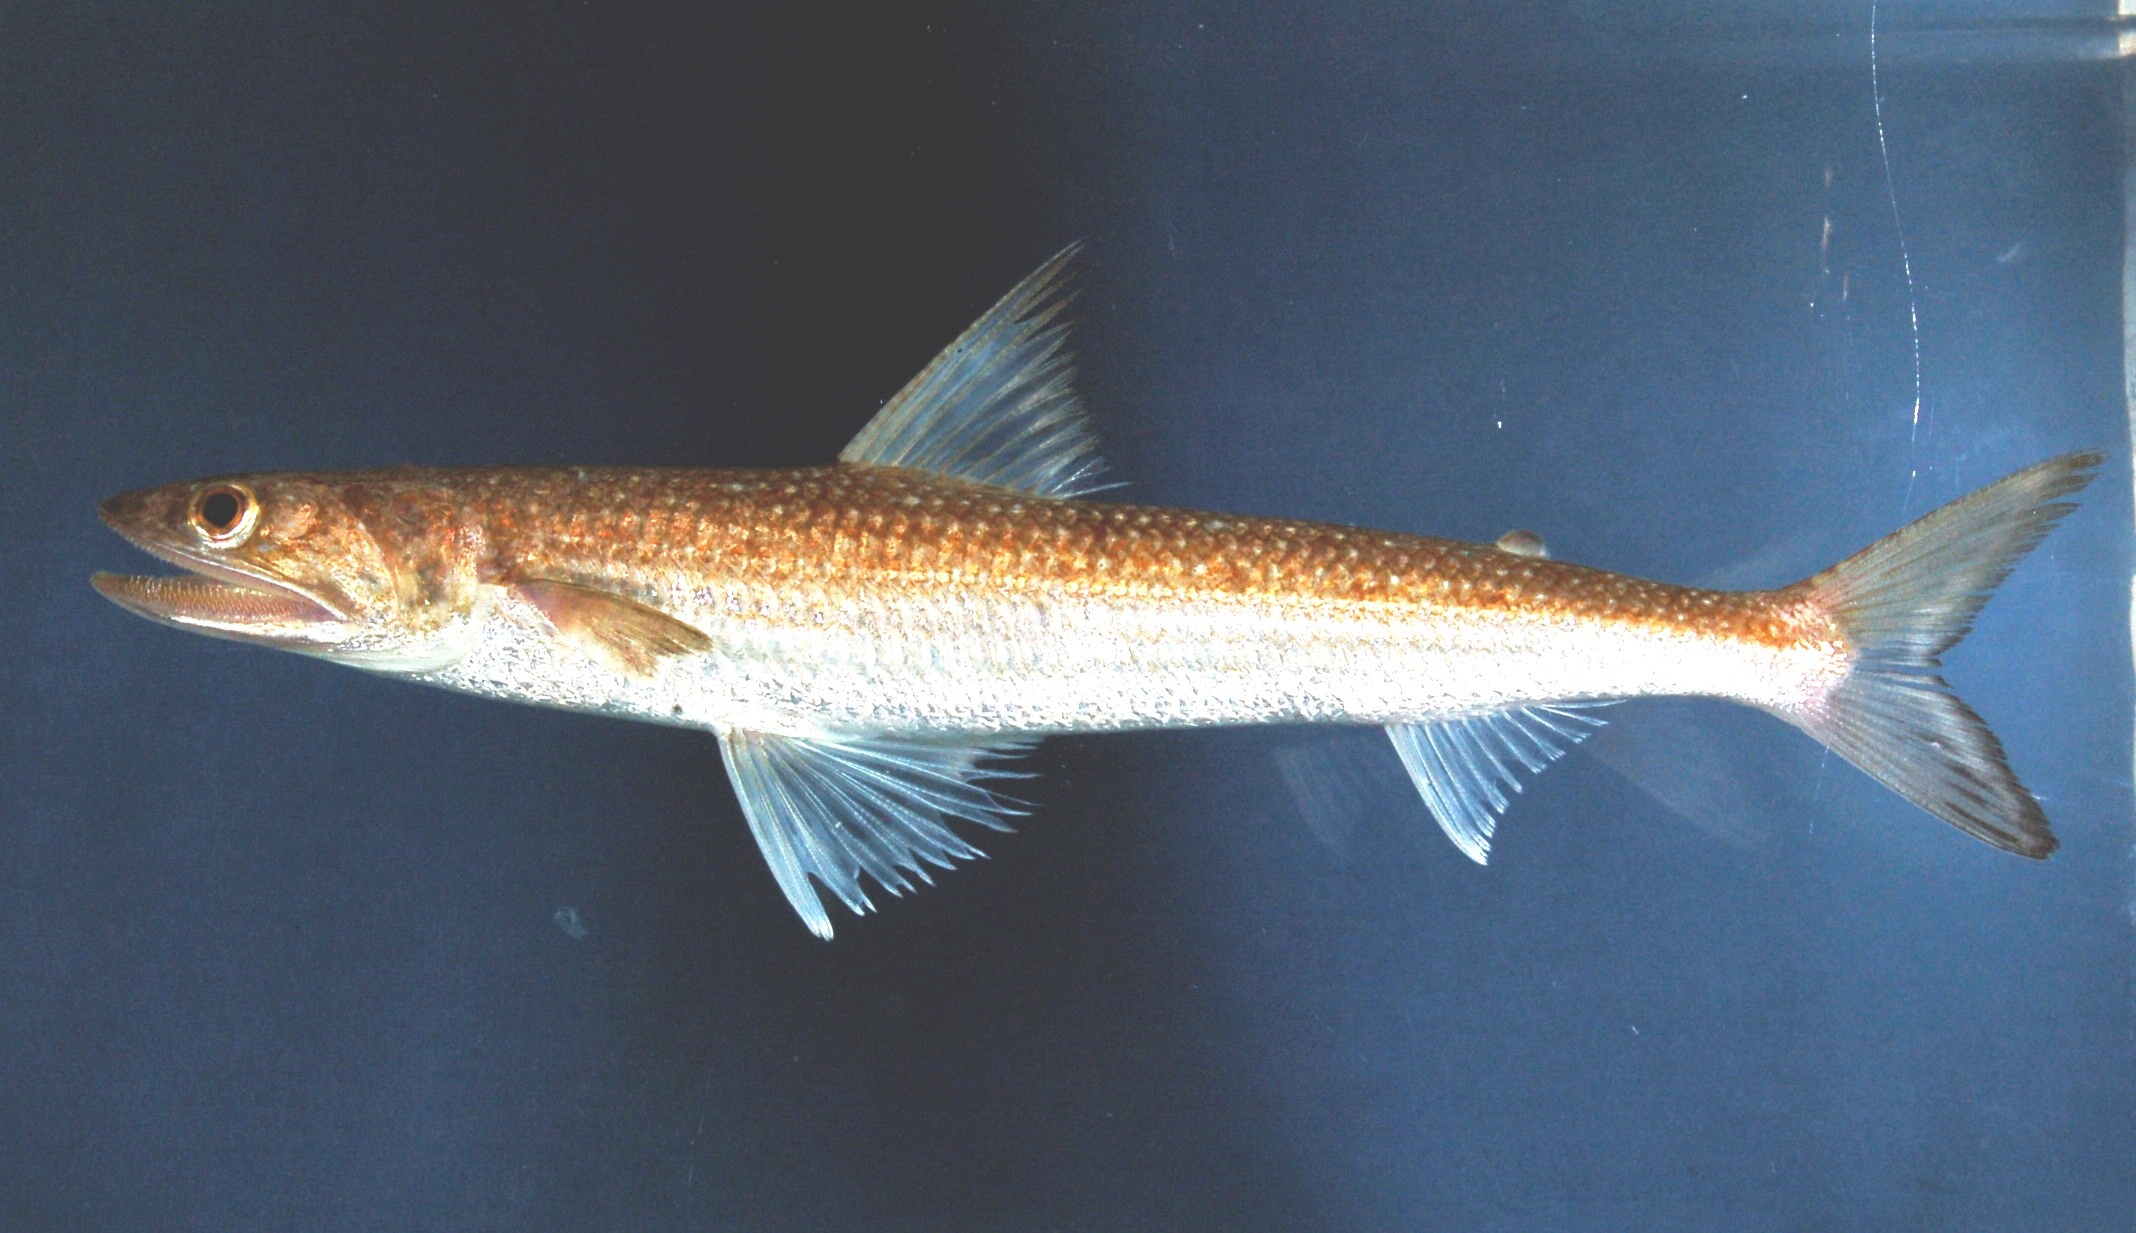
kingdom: Animalia
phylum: Chordata
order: Aulopiformes
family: Synodontidae
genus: Saurida
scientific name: Saurida micropectoralis
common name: Shortfin lizardfish
